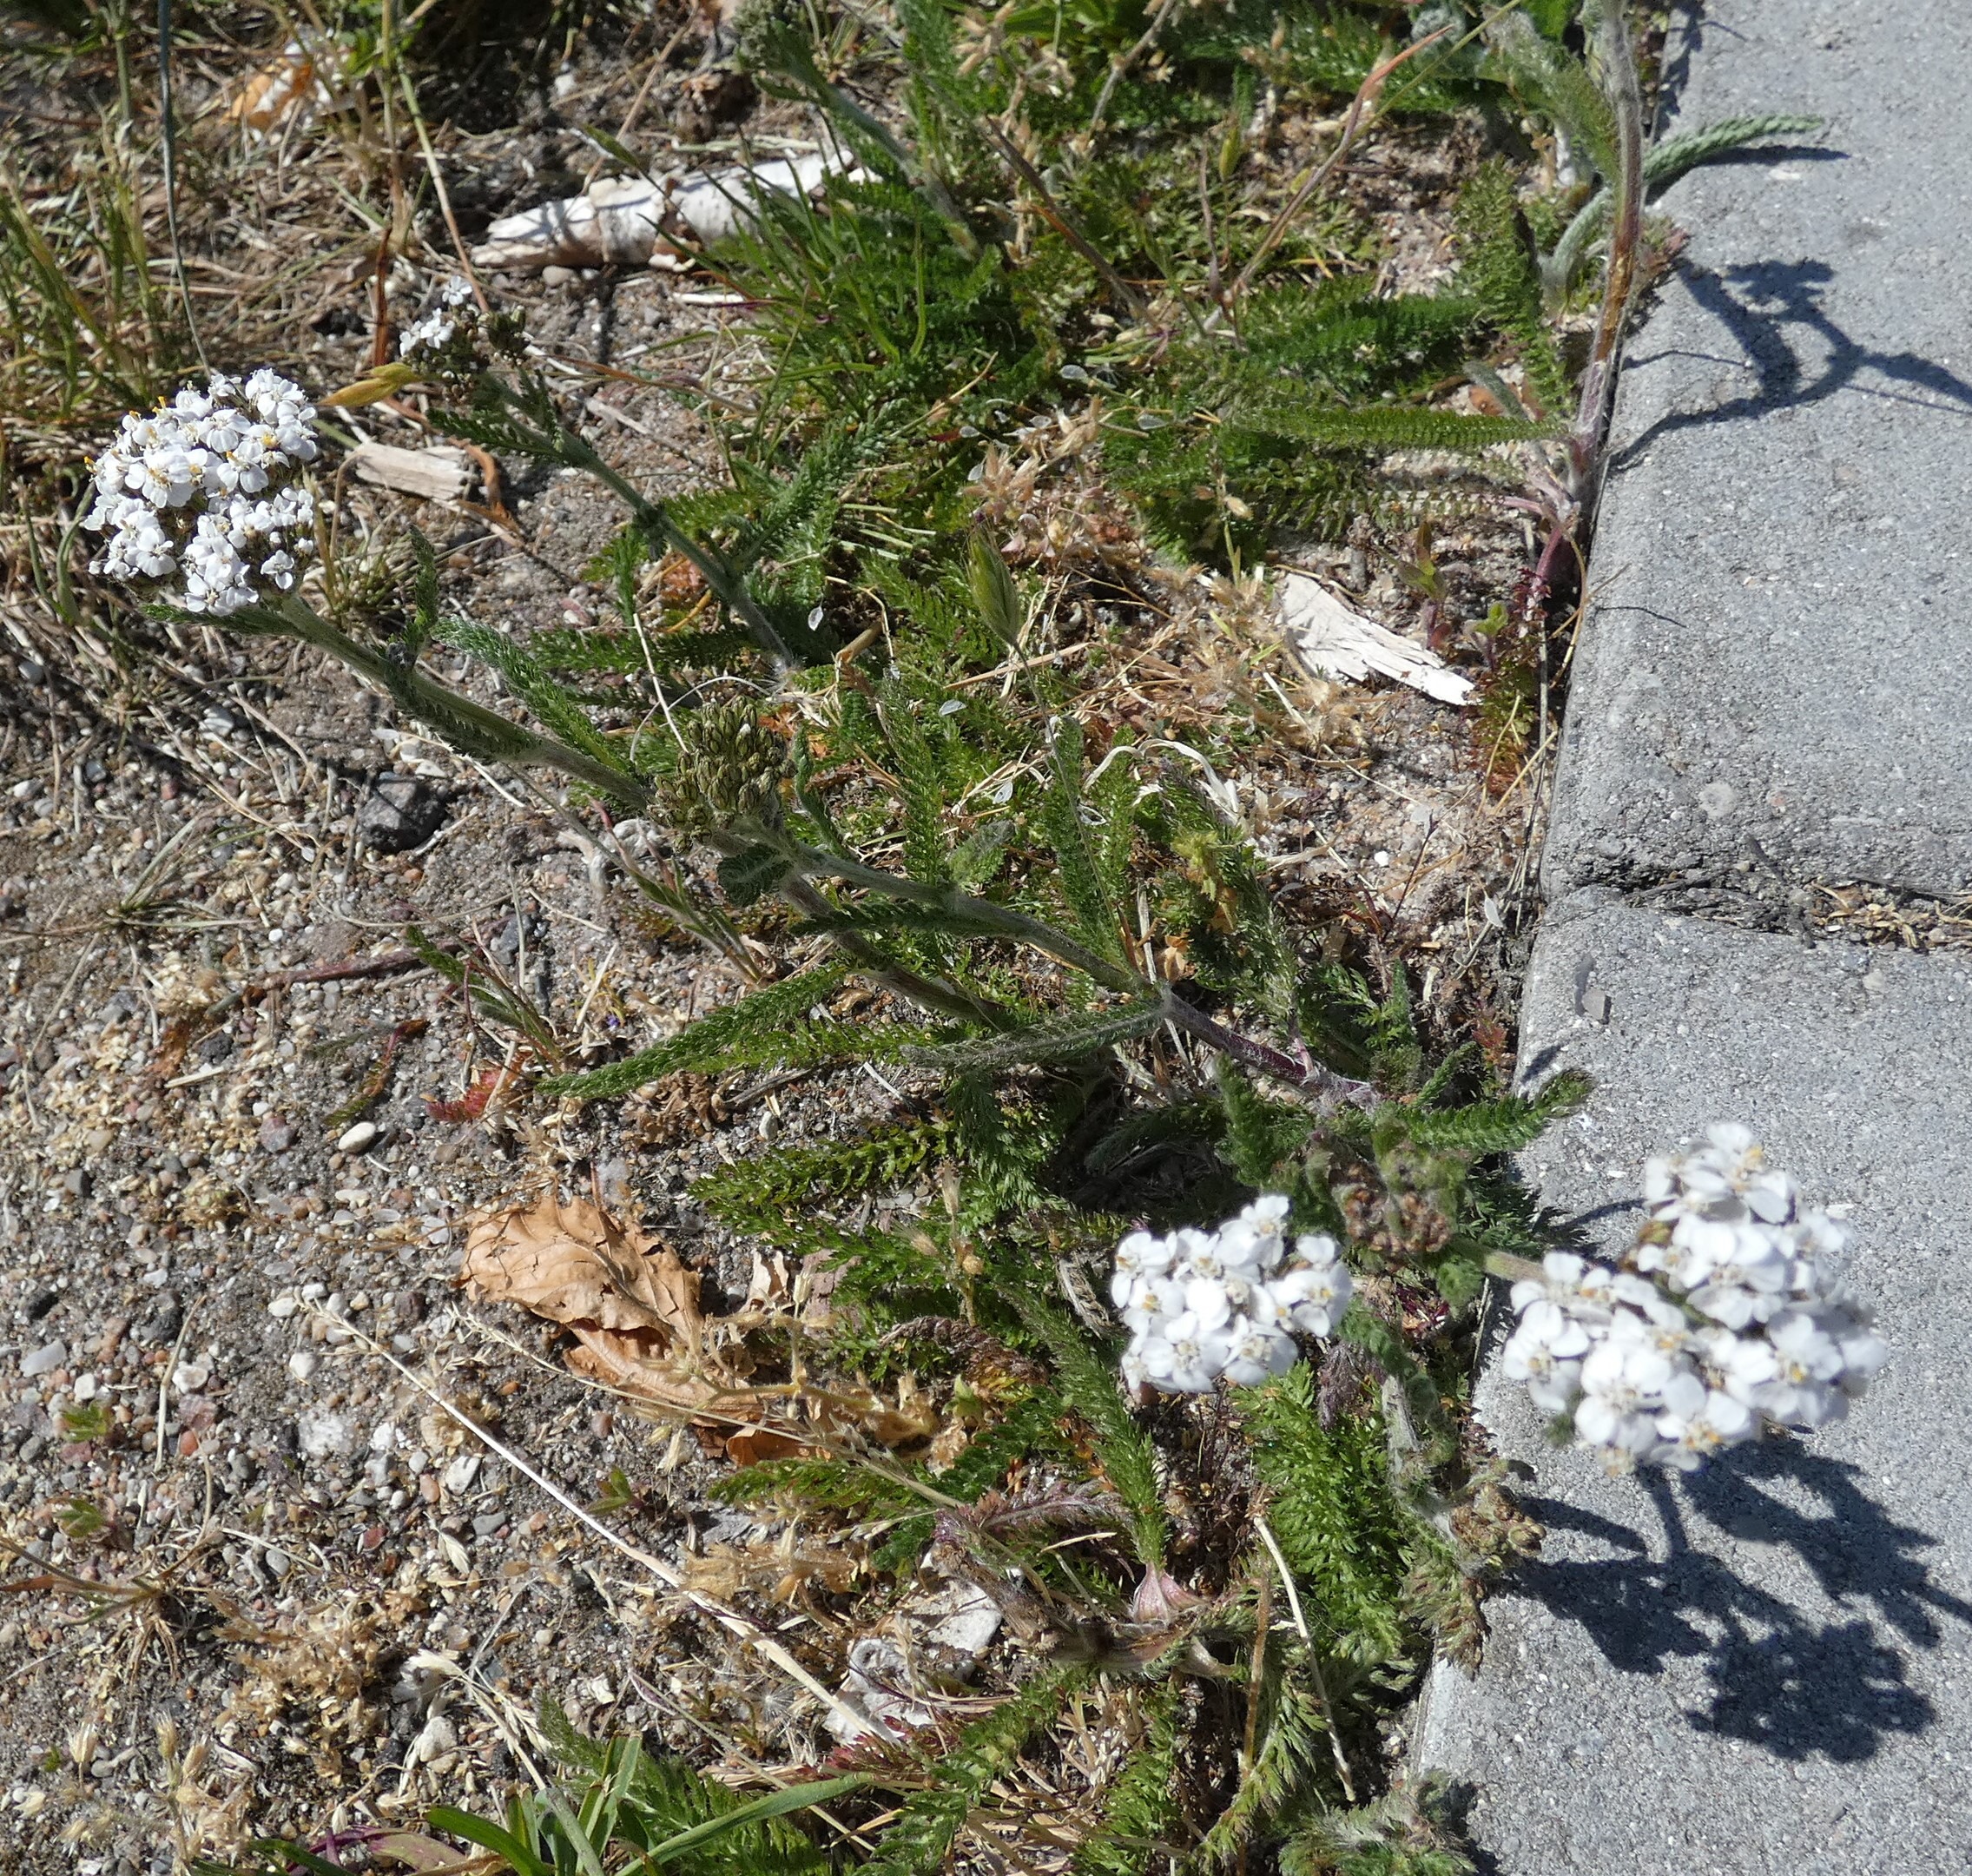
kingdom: Plantae
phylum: Tracheophyta
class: Magnoliopsida
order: Asterales
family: Asteraceae
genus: Achillea
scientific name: Achillea millefolium
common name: Almindelig røllike
